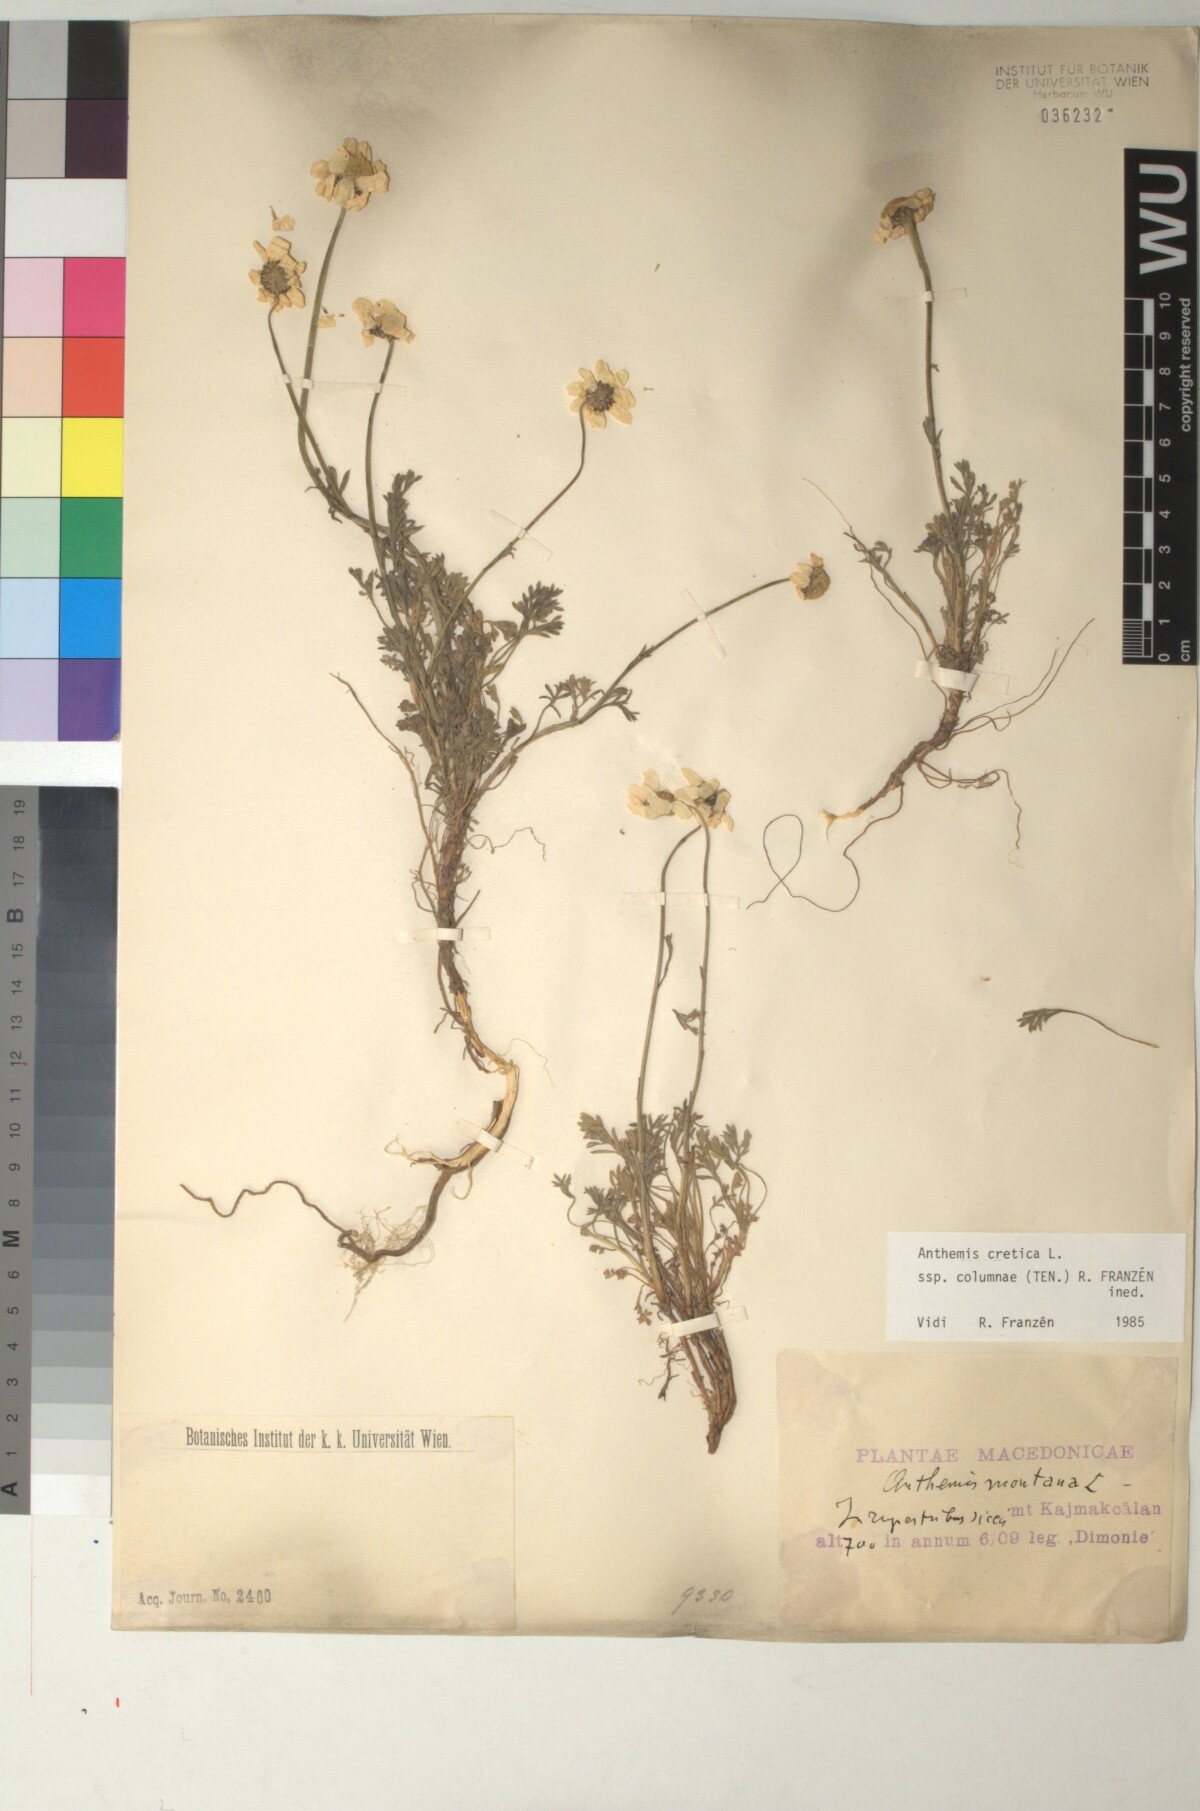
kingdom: Plantae
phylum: Tracheophyta
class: Magnoliopsida
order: Asterales
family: Asteraceae
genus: Anthemis
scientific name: Anthemis cretica
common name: Mountain dog-daisy
